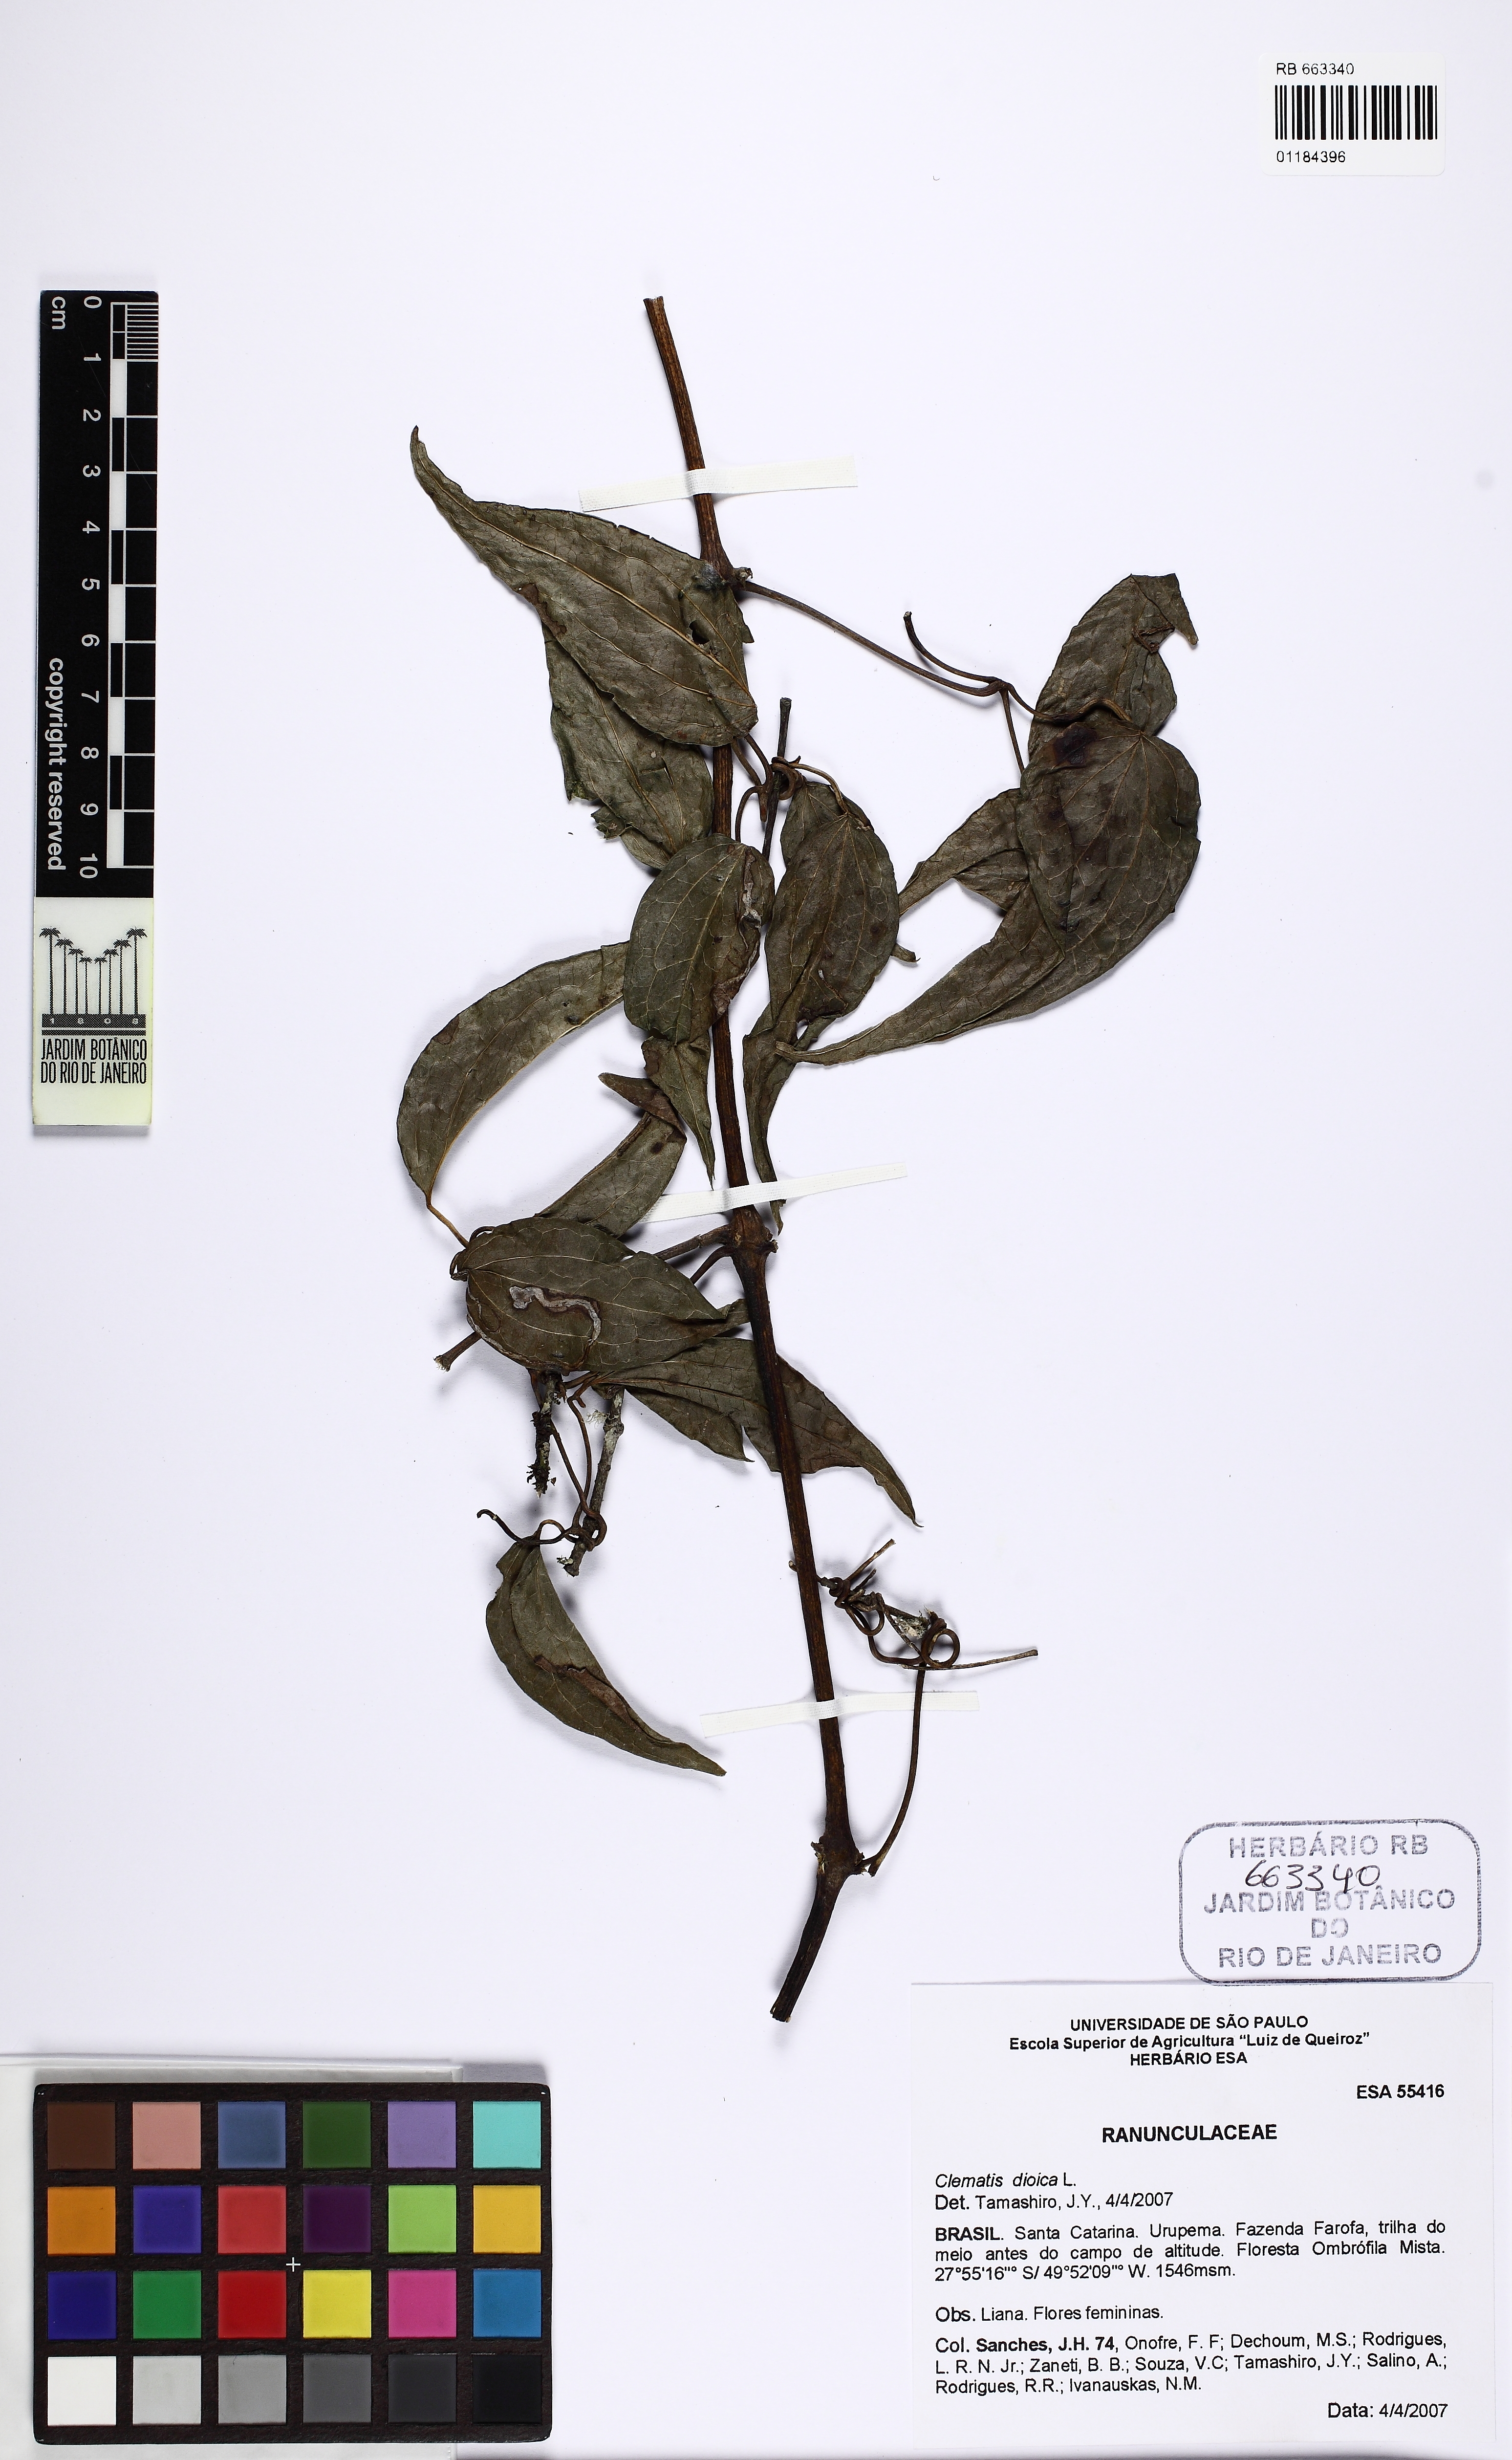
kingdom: Plantae
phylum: Tracheophyta
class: Magnoliopsida
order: Ranunculales
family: Ranunculaceae
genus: Clematis
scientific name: Clematis dioica
